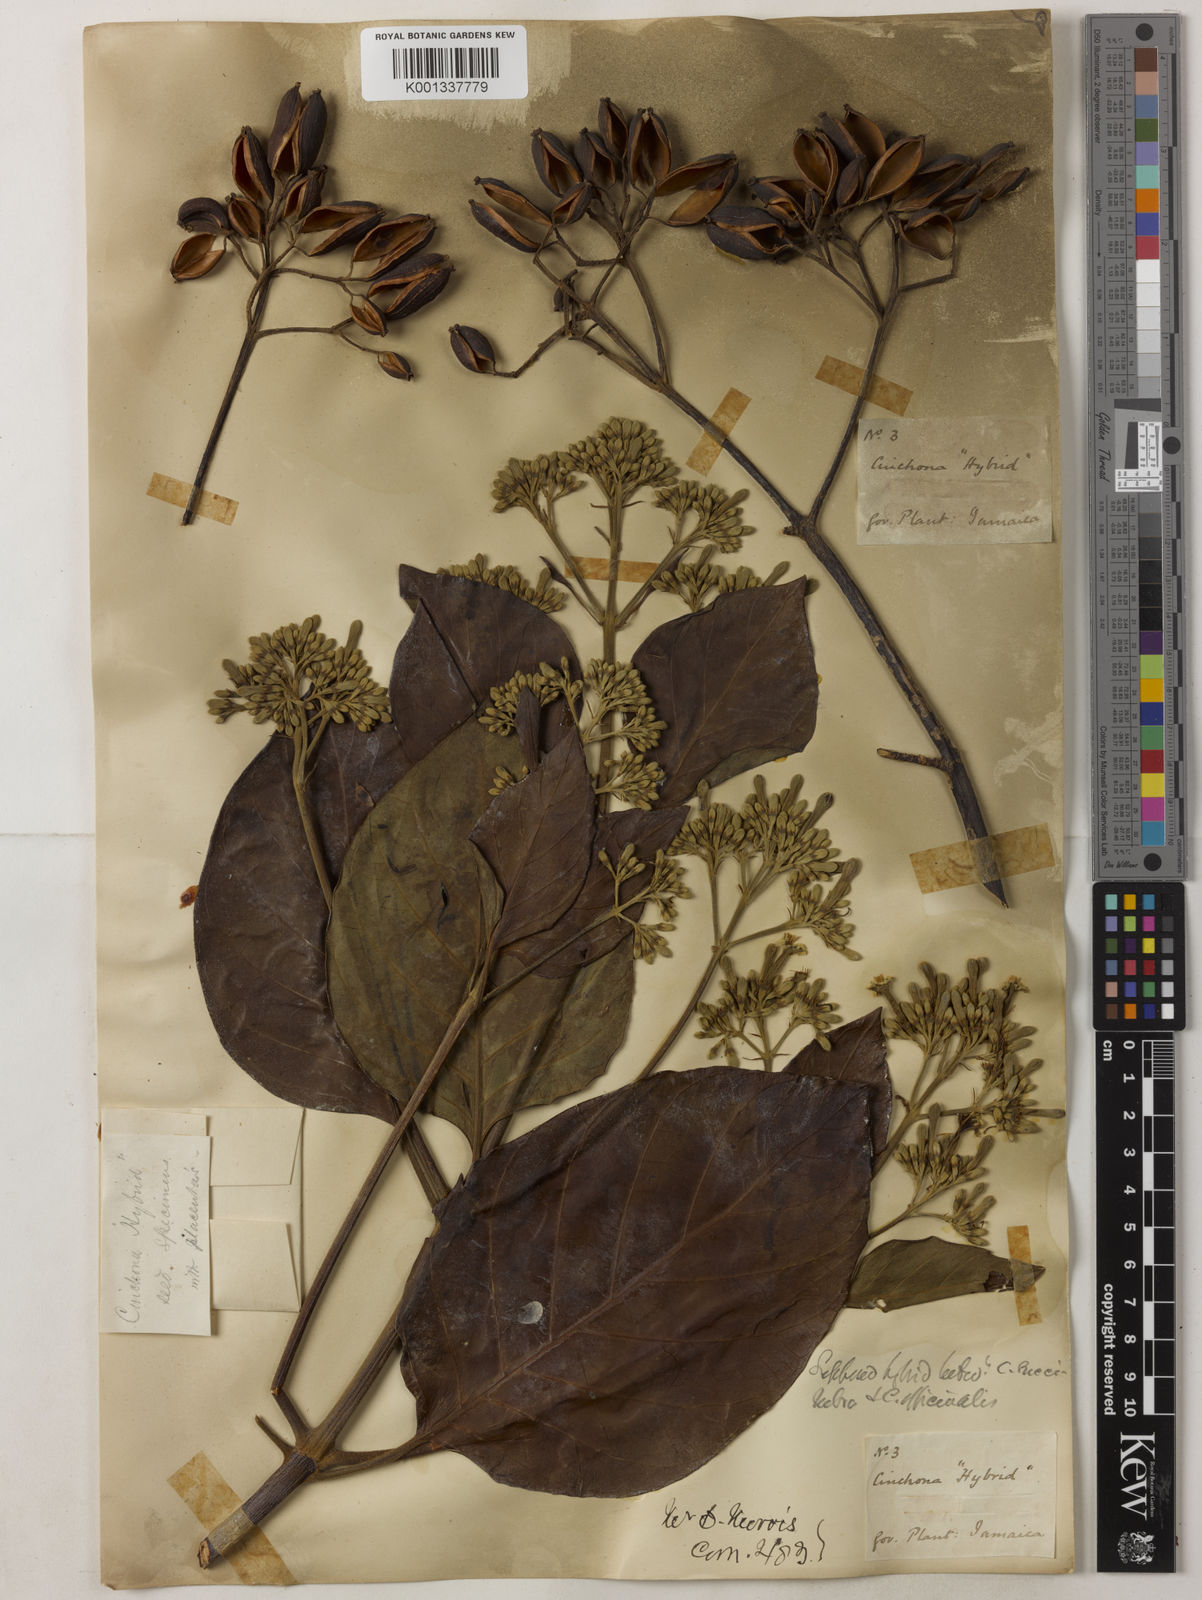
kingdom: Plantae
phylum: Tracheophyta
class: Magnoliopsida
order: Gentianales
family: Rubiaceae
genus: Cinchona
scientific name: Cinchona
